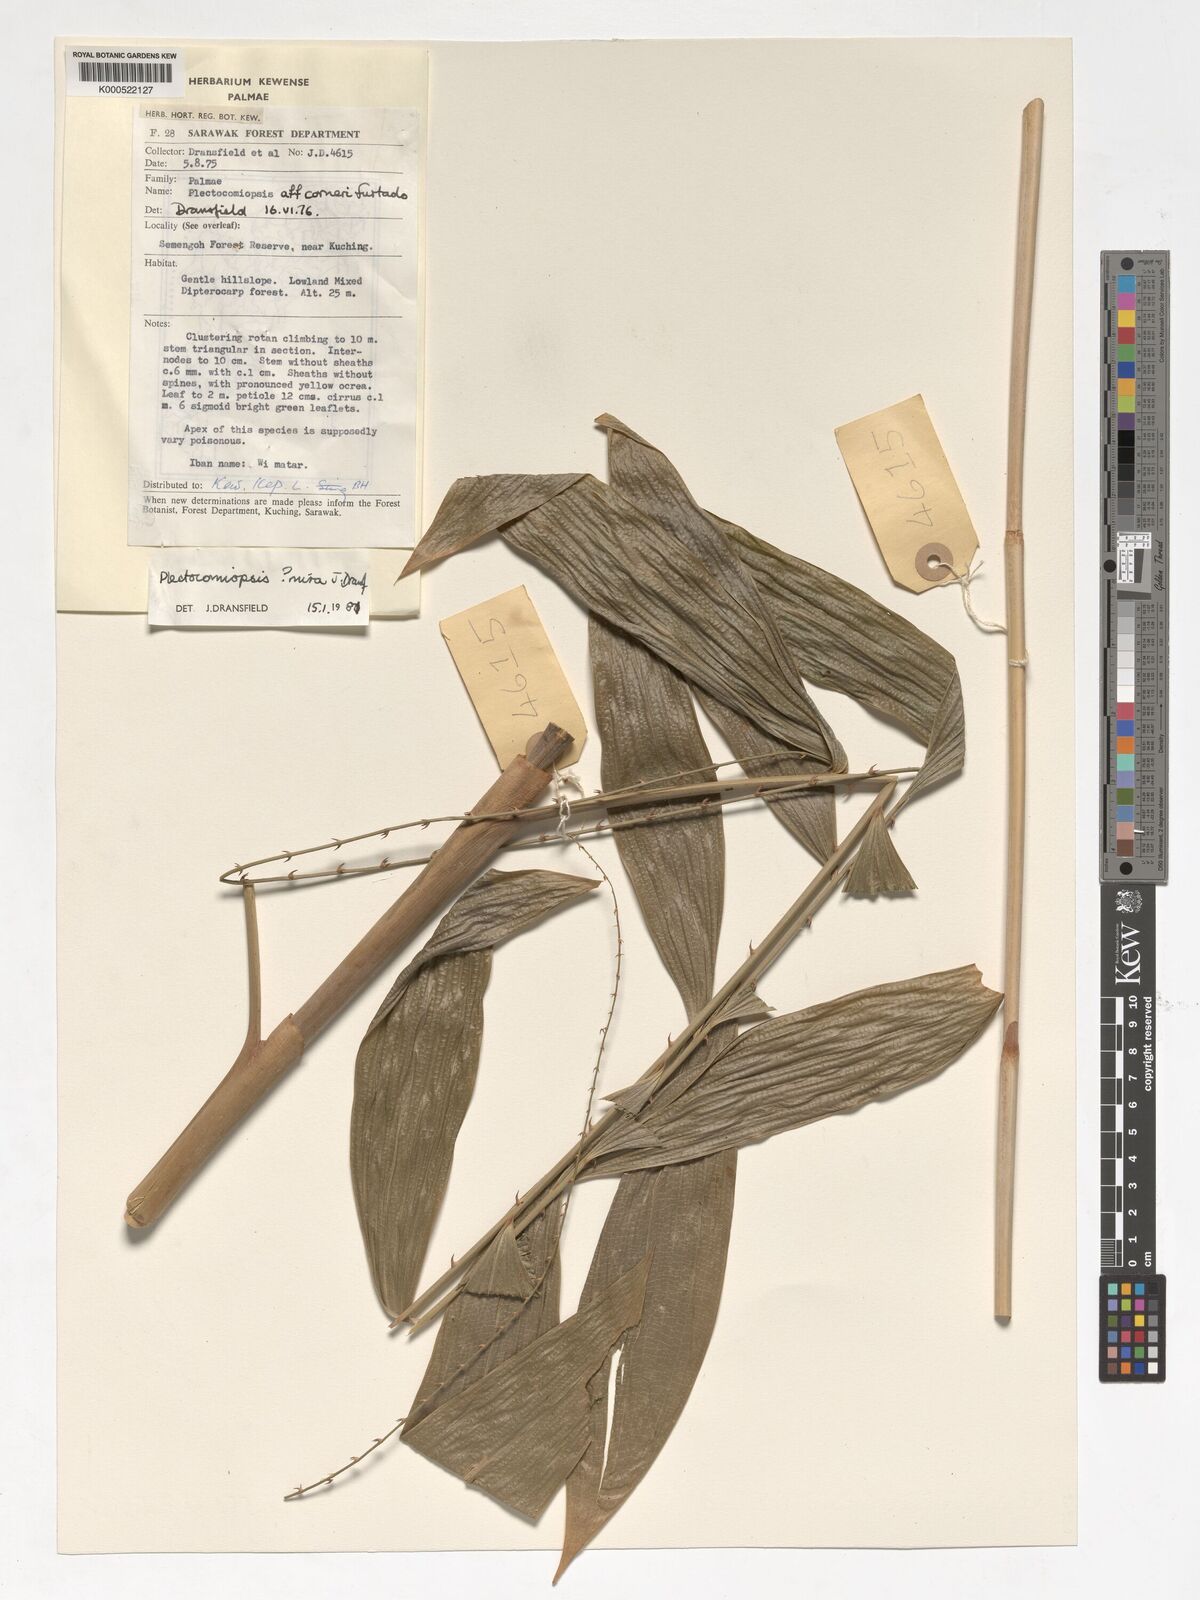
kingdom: Plantae
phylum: Tracheophyta
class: Liliopsida
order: Arecales
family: Arecaceae
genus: Plectocomiopsis
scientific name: Plectocomiopsis mira
